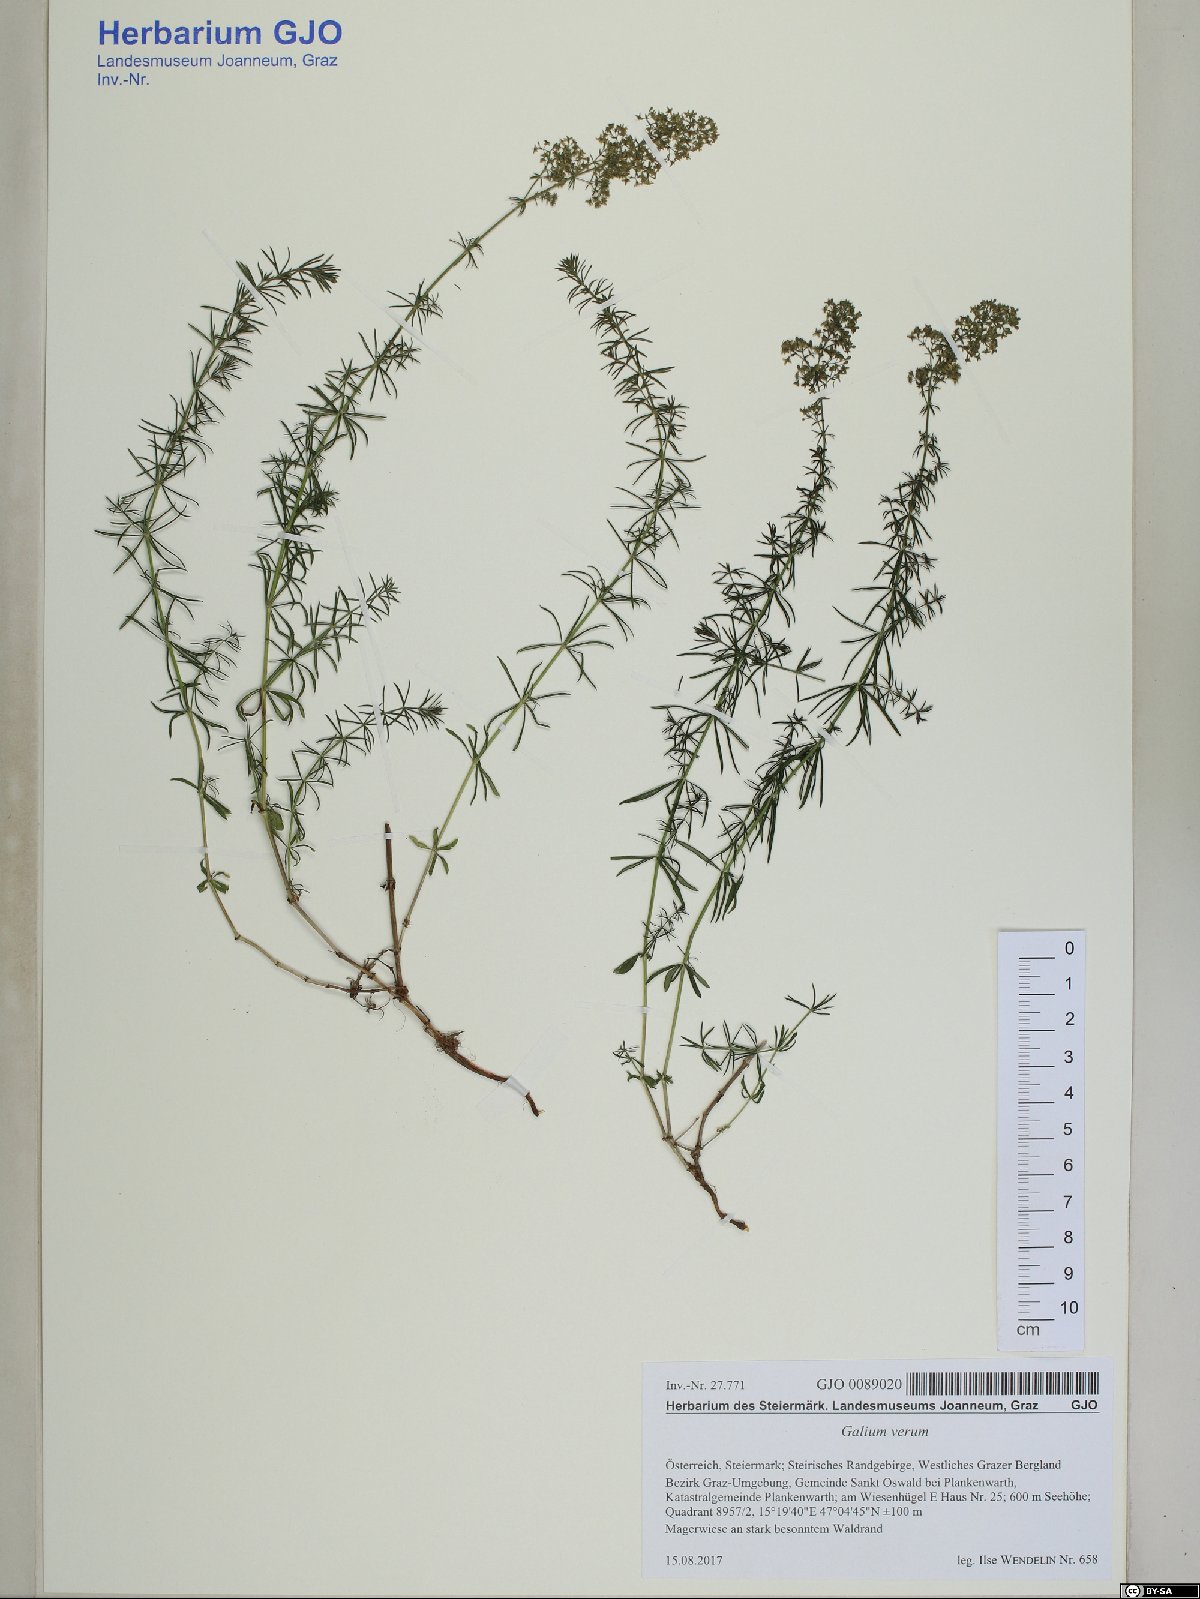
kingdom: Plantae
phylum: Tracheophyta
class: Magnoliopsida
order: Gentianales
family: Rubiaceae
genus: Galium
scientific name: Galium verum
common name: Lady's bedstraw
